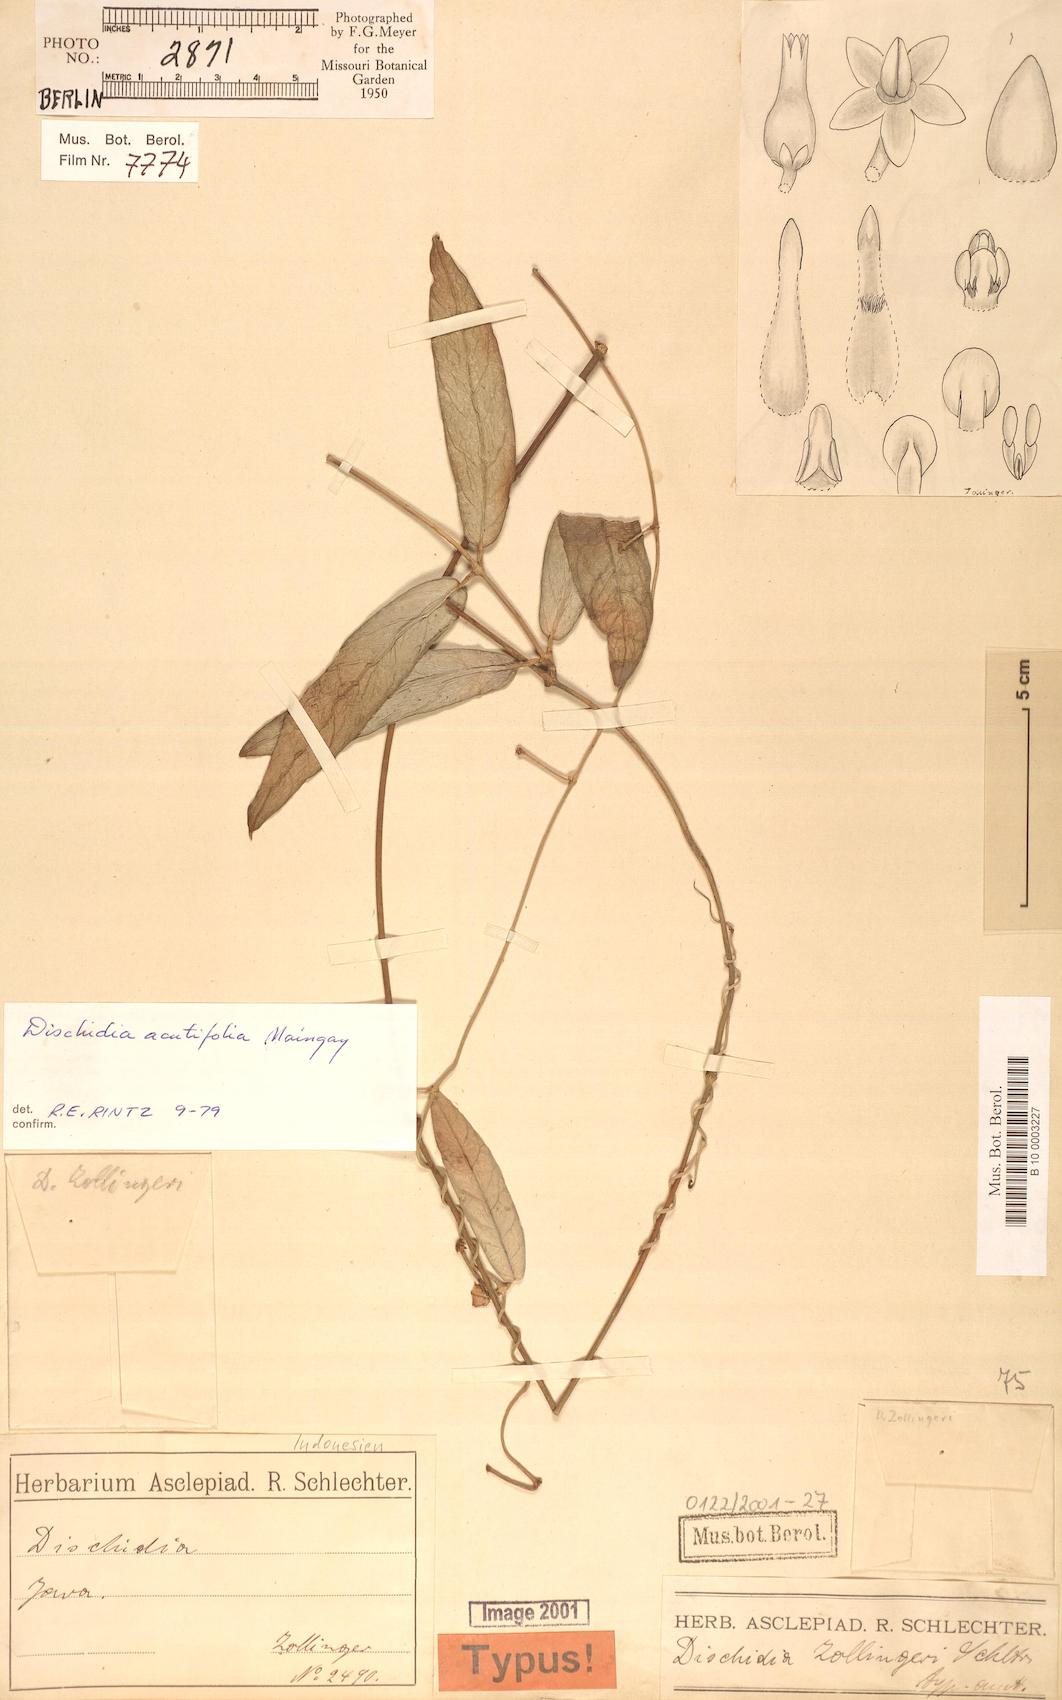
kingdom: Plantae
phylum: Tracheophyta
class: Magnoliopsida
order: Gentianales
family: Apocynaceae
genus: Dischidia
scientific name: Dischidia acutifolia
